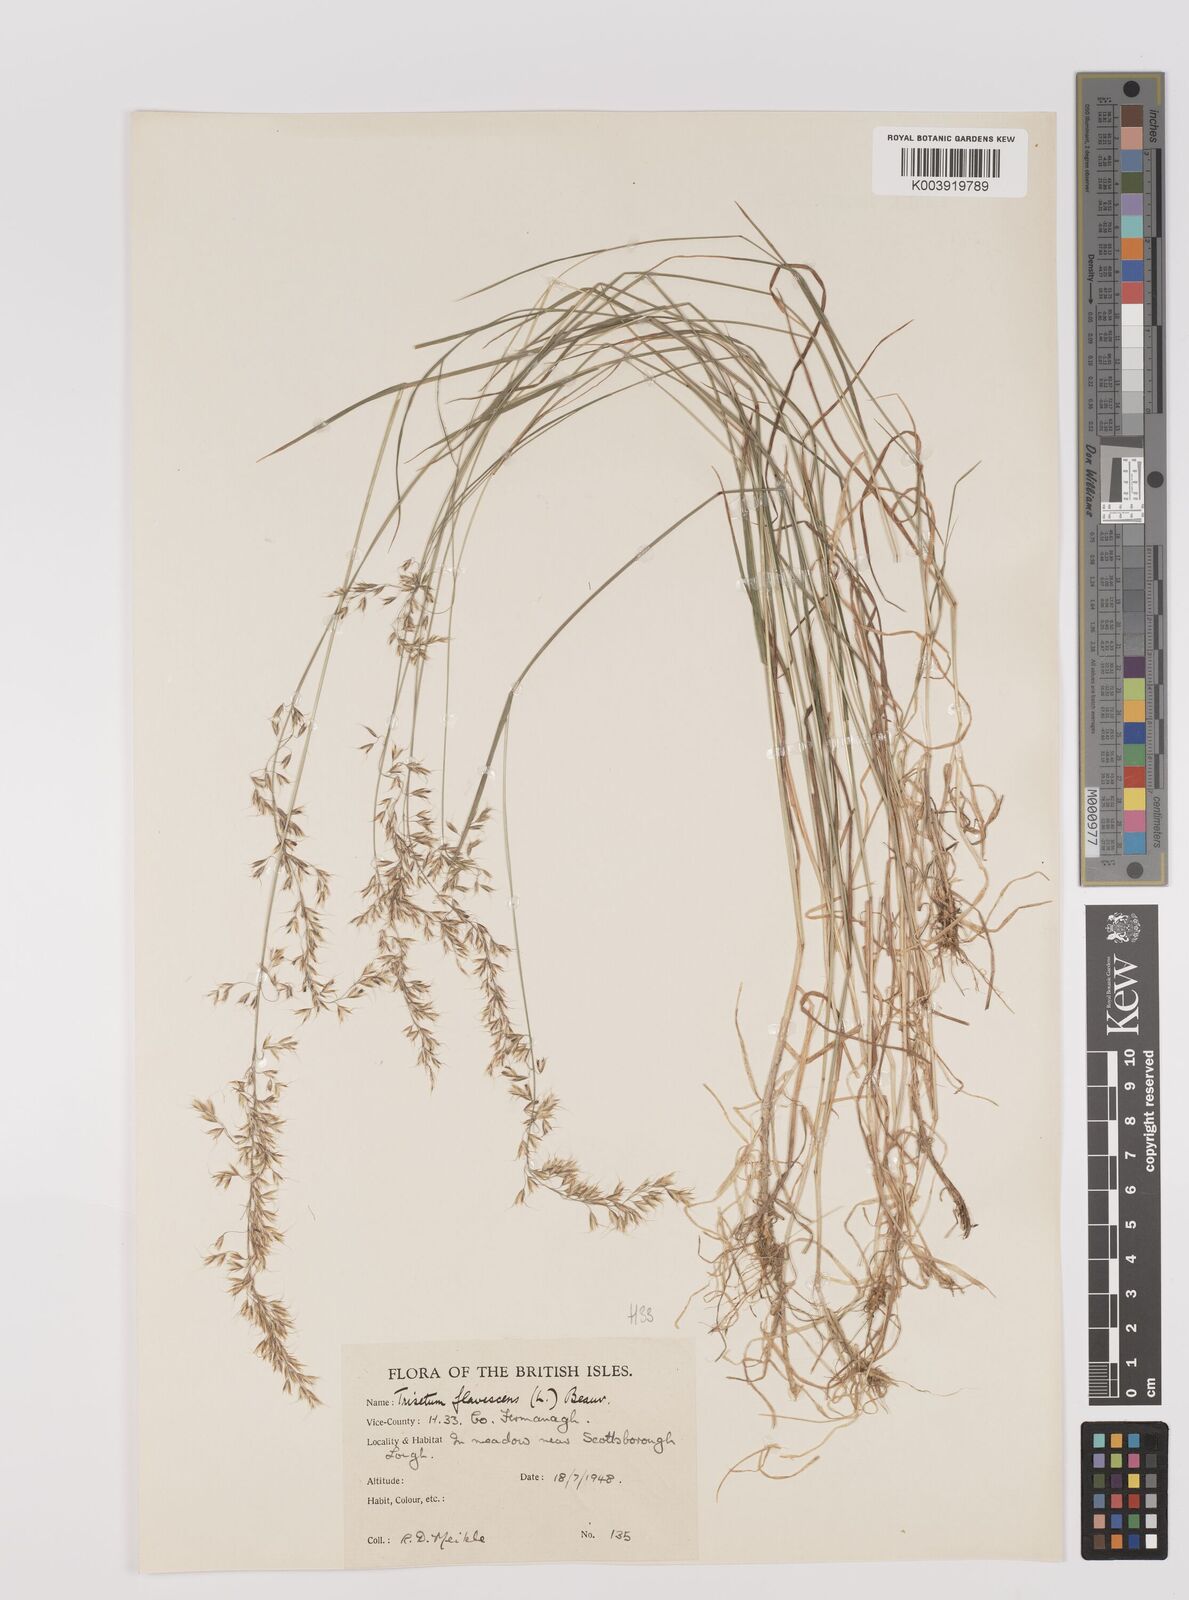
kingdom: Plantae
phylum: Tracheophyta
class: Liliopsida
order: Poales
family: Poaceae
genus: Trisetum
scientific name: Trisetum flavescens
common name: Yellow oat-grass
